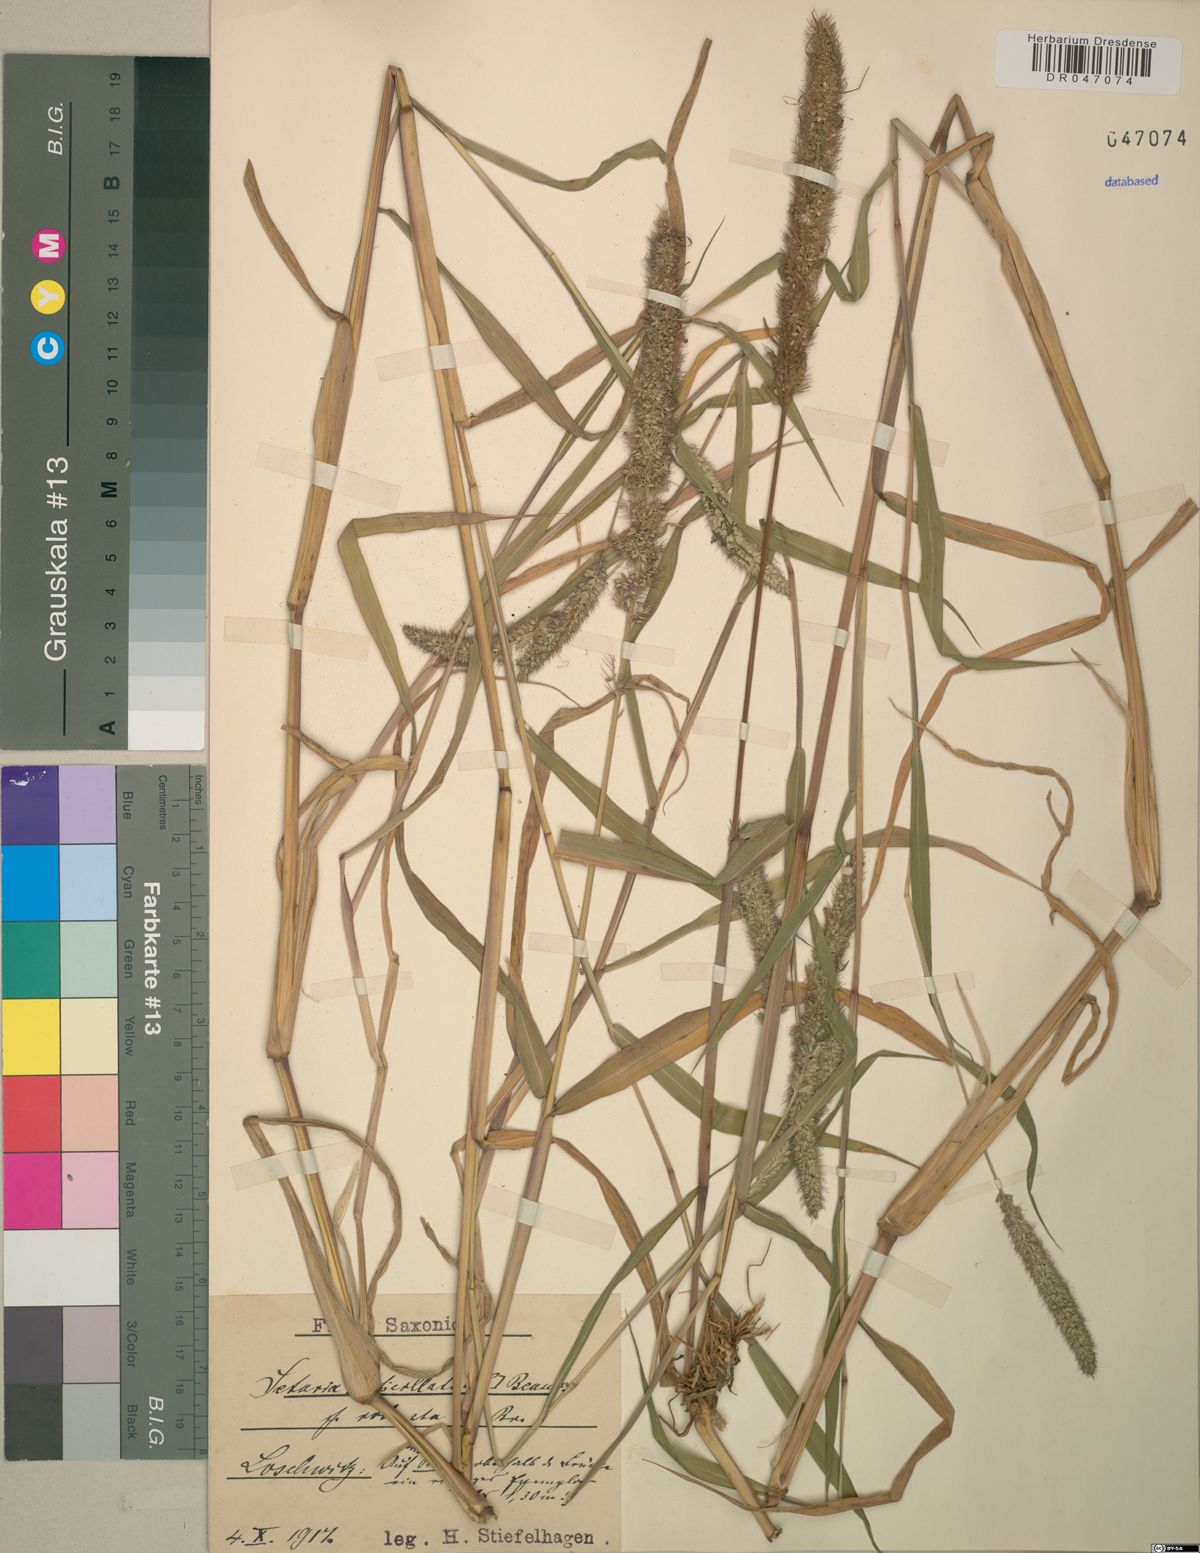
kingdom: Plantae
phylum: Tracheophyta
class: Liliopsida
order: Poales
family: Poaceae
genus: Setaria
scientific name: Setaria verticillata
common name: Hooked bristlegrass
